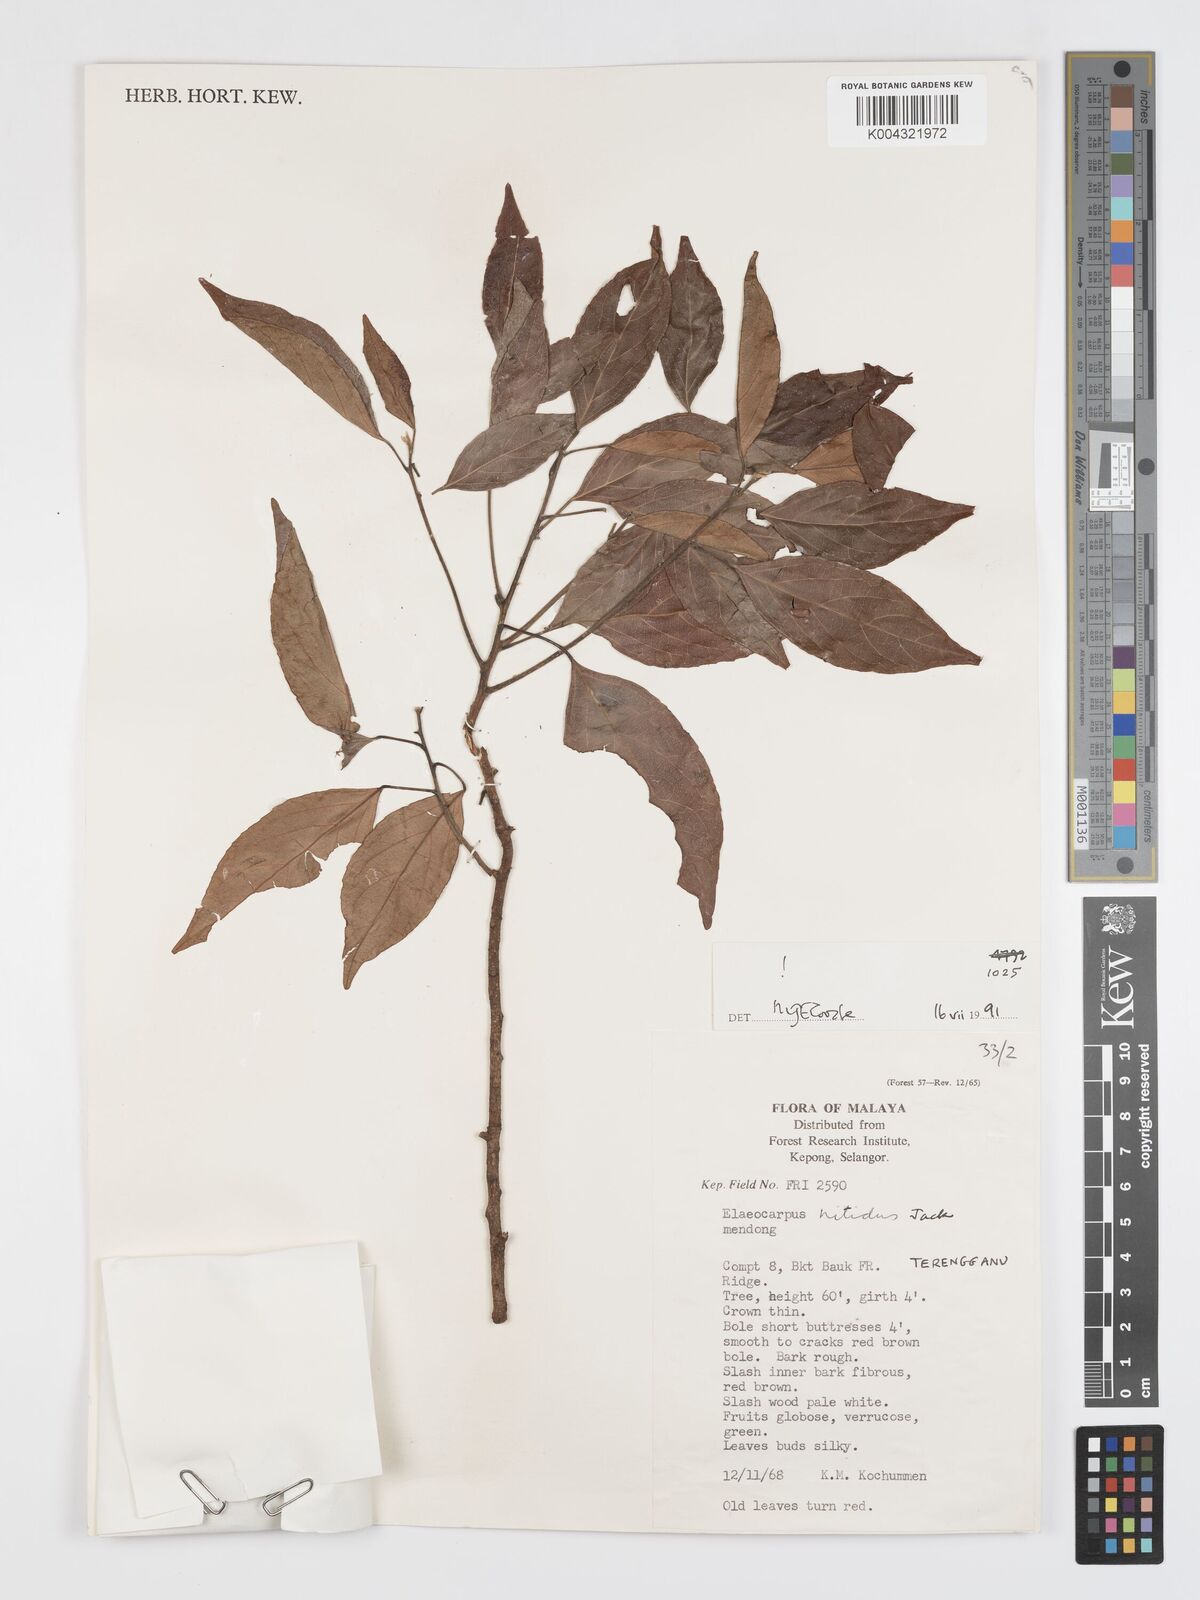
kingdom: Plantae
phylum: Tracheophyta
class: Magnoliopsida
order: Oxalidales
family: Elaeocarpaceae
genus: Elaeocarpus
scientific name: Elaeocarpus nitidus
